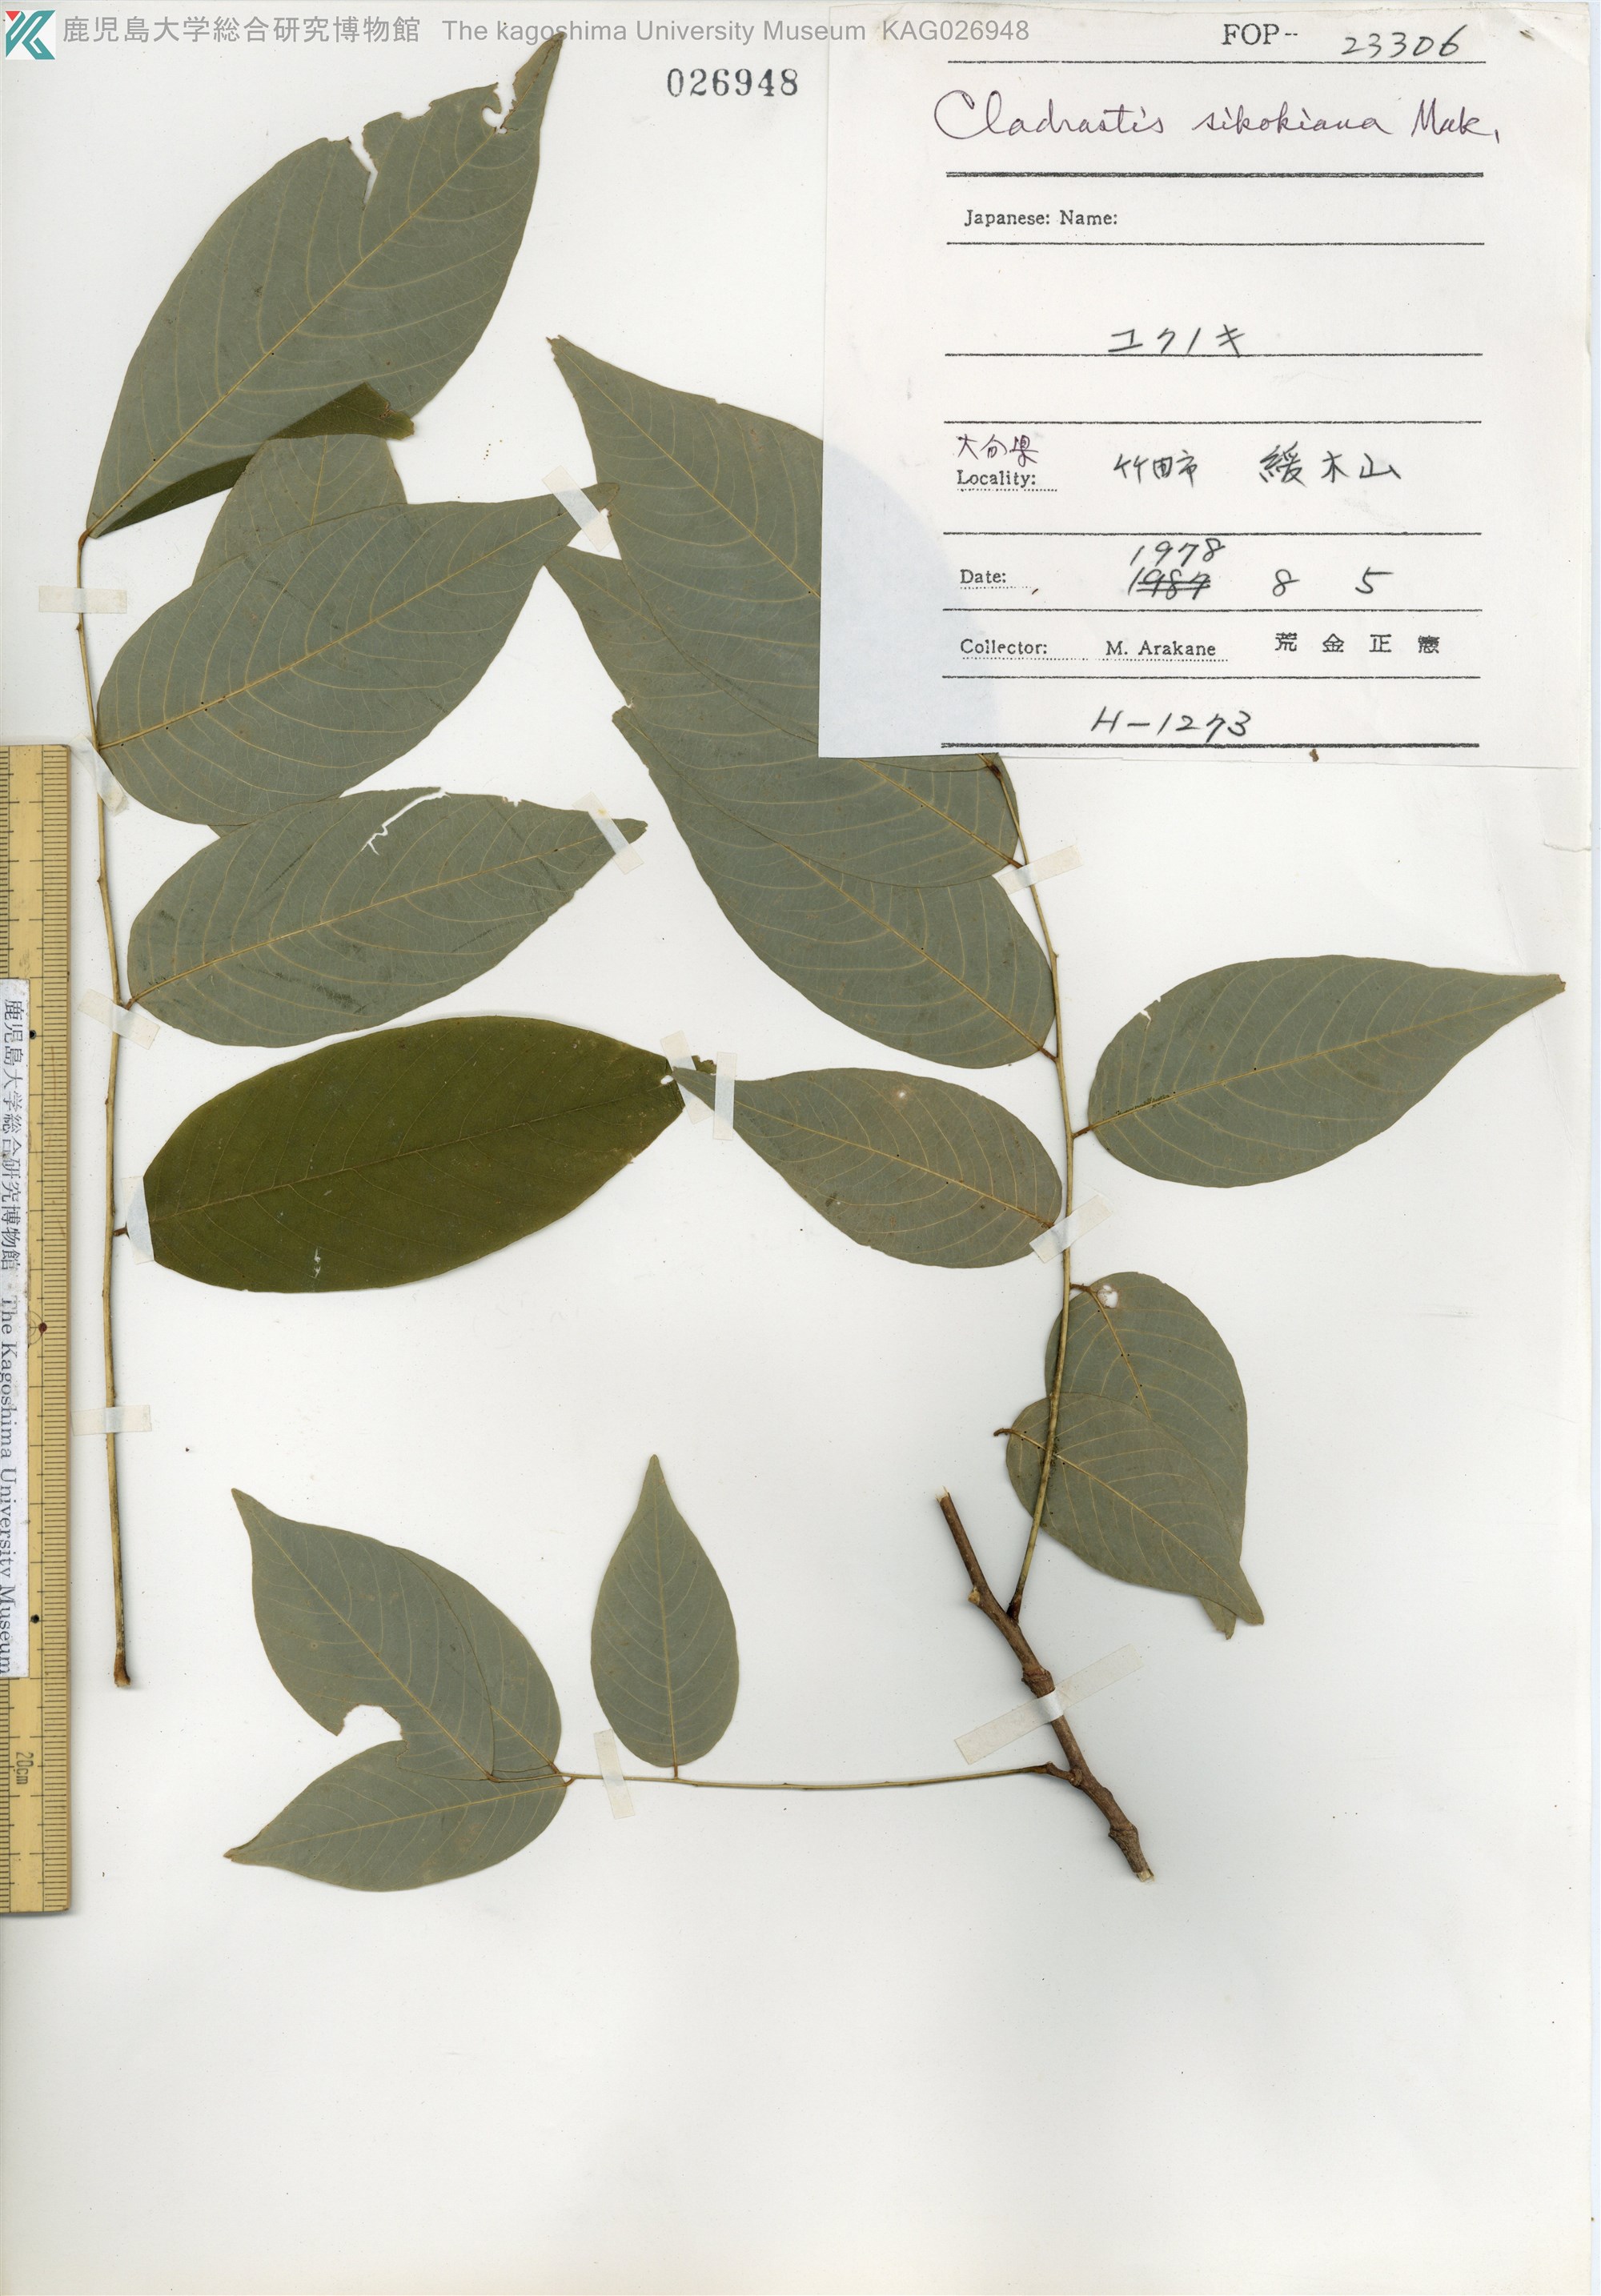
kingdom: Plantae
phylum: Tracheophyta
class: Magnoliopsida
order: Fabales
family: Fabaceae
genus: Cladrastis
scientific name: Cladrastis shikokiana
